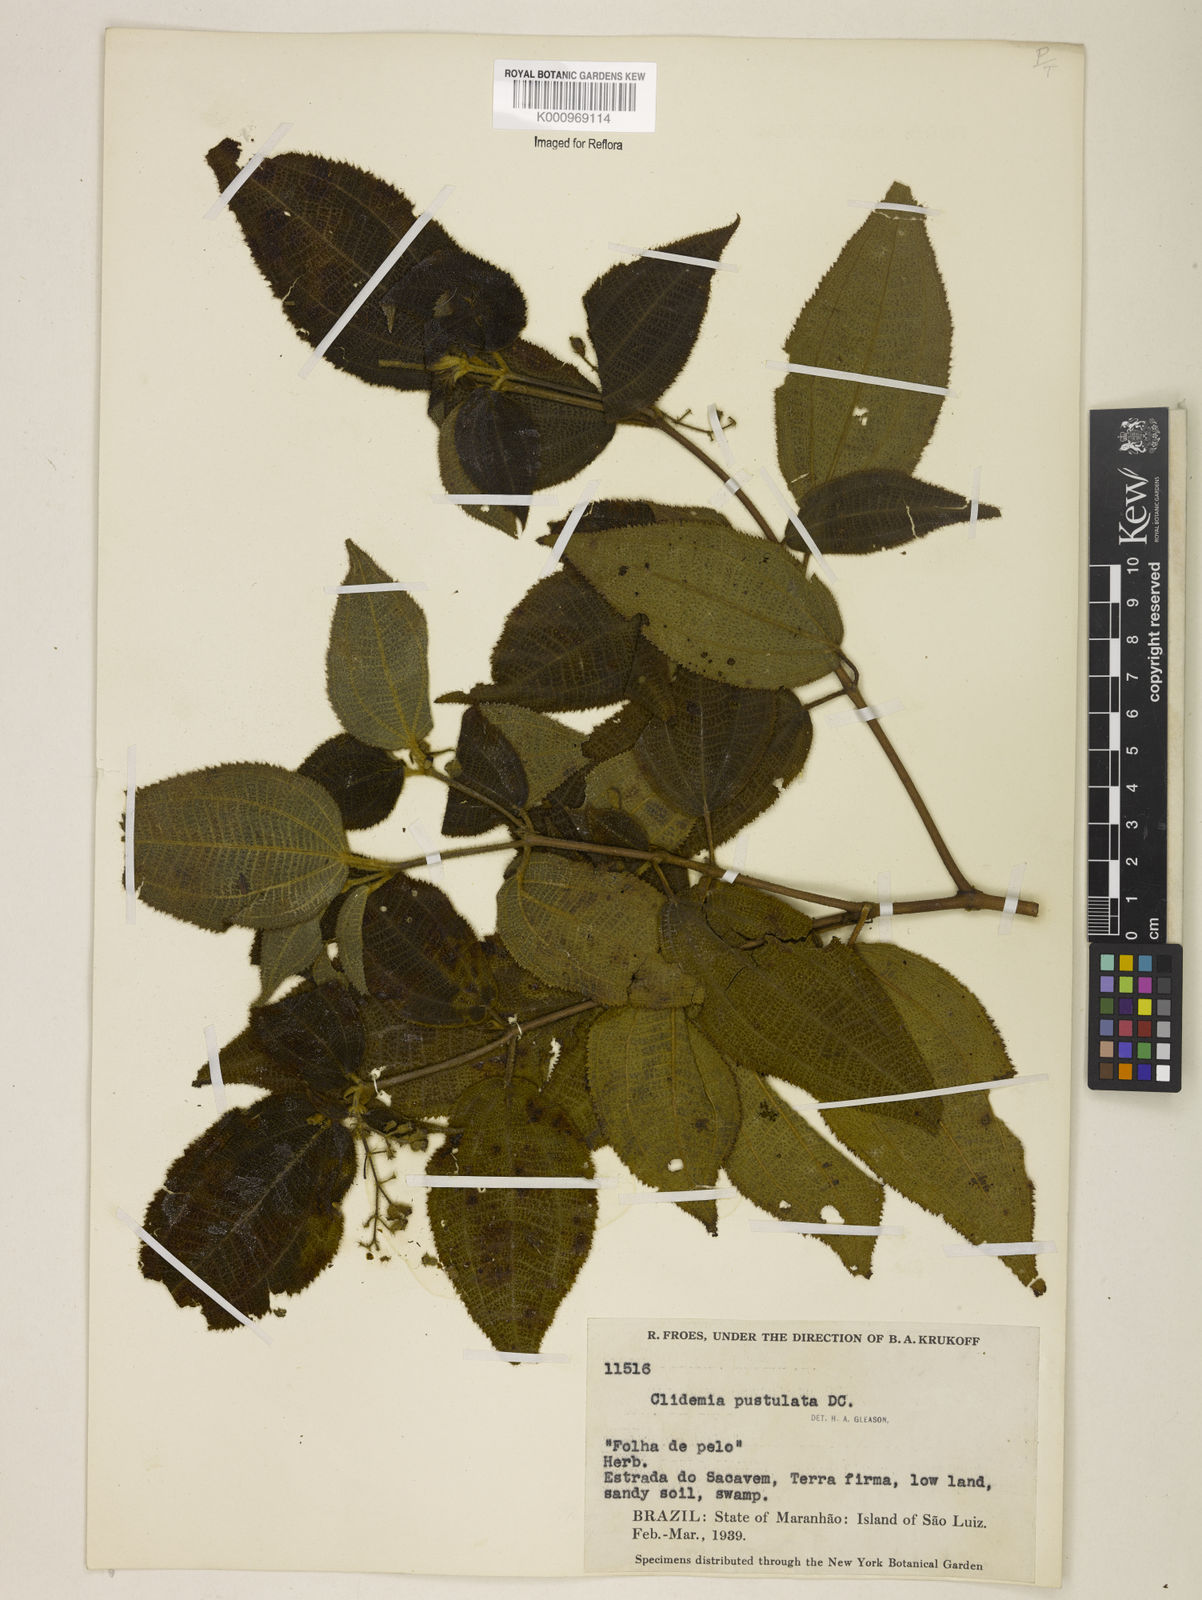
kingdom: Plantae
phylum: Tracheophyta
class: Magnoliopsida
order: Myrtales
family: Melastomataceae
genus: Miconia
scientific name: Miconia fenestrata
